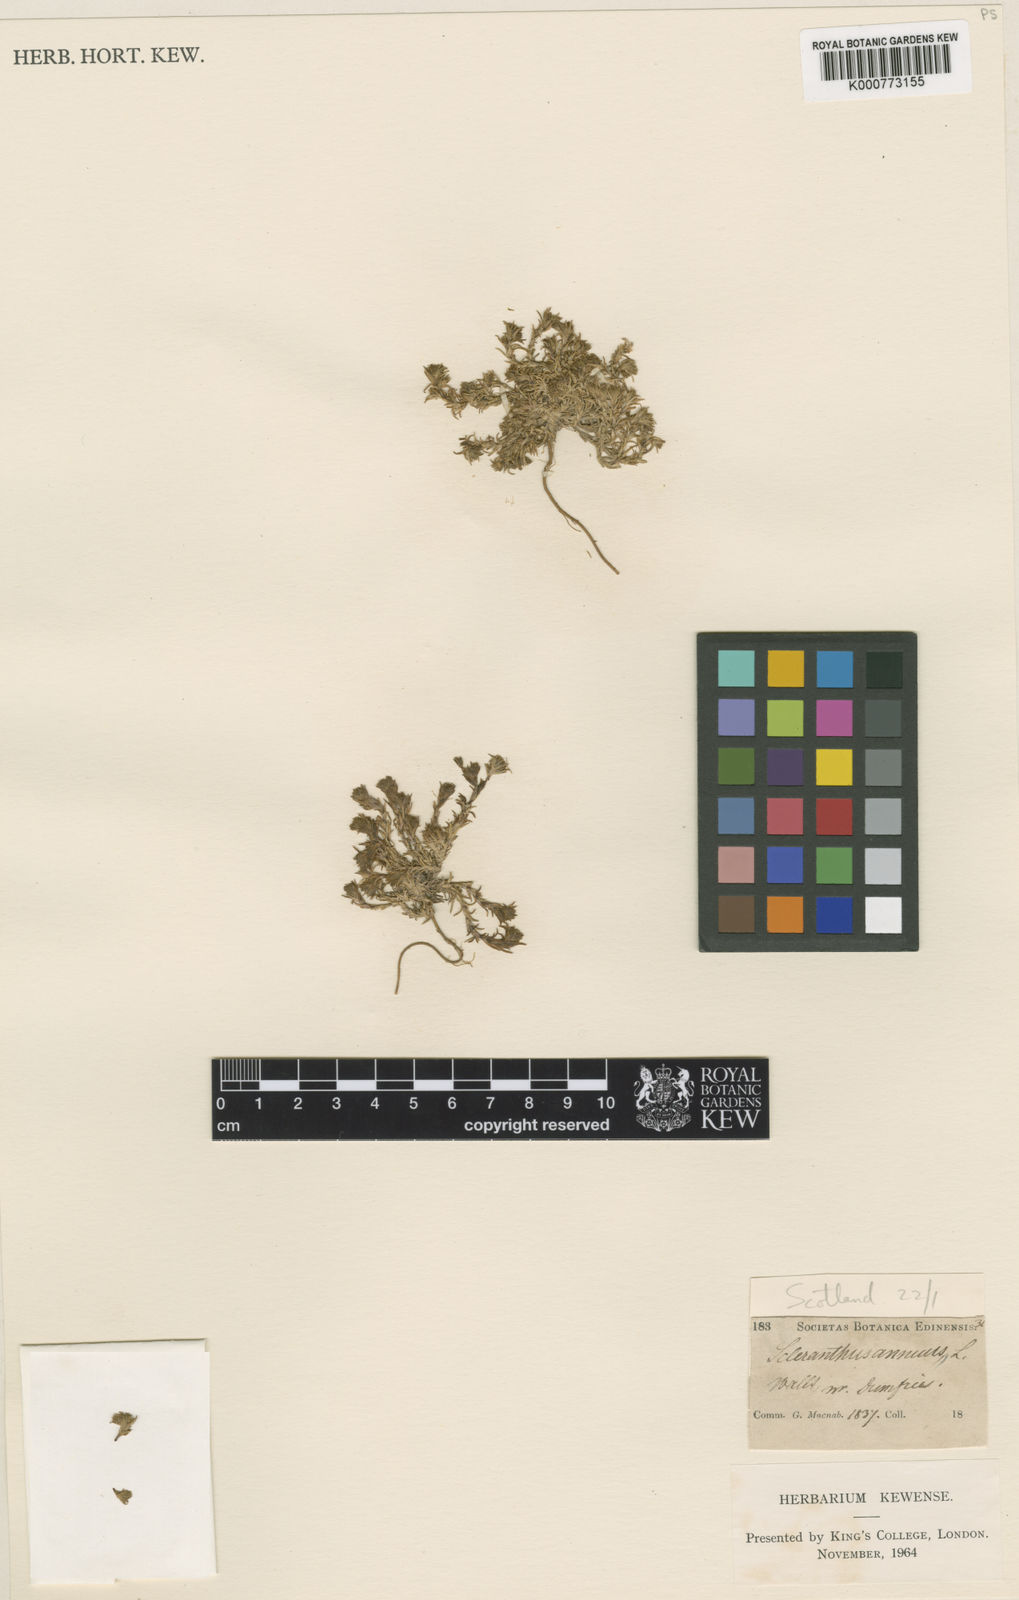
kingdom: Plantae
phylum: Tracheophyta
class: Magnoliopsida
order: Caryophyllales
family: Caryophyllaceae
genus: Scleranthus
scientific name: Scleranthus annuus
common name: Annual knawel
